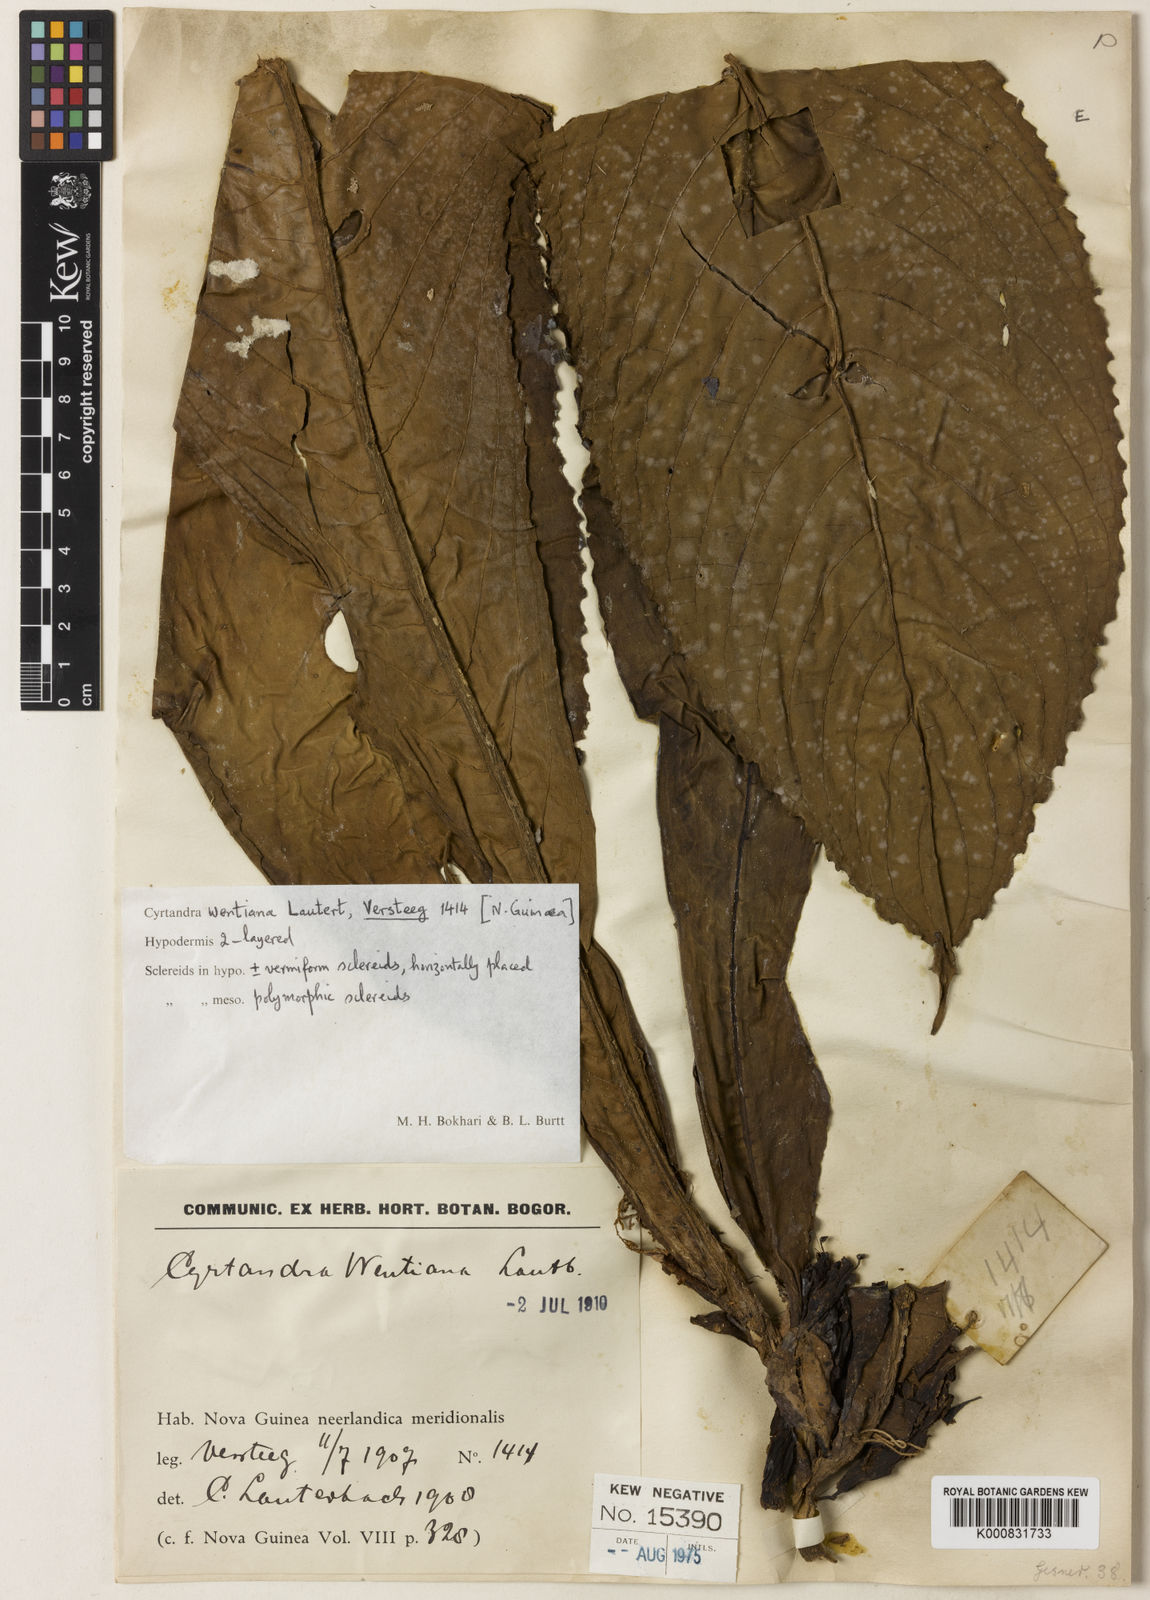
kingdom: Plantae
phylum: Tracheophyta
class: Magnoliopsida
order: Lamiales
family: Gesneriaceae
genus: Cyrtandra
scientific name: Cyrtandra wentiana
